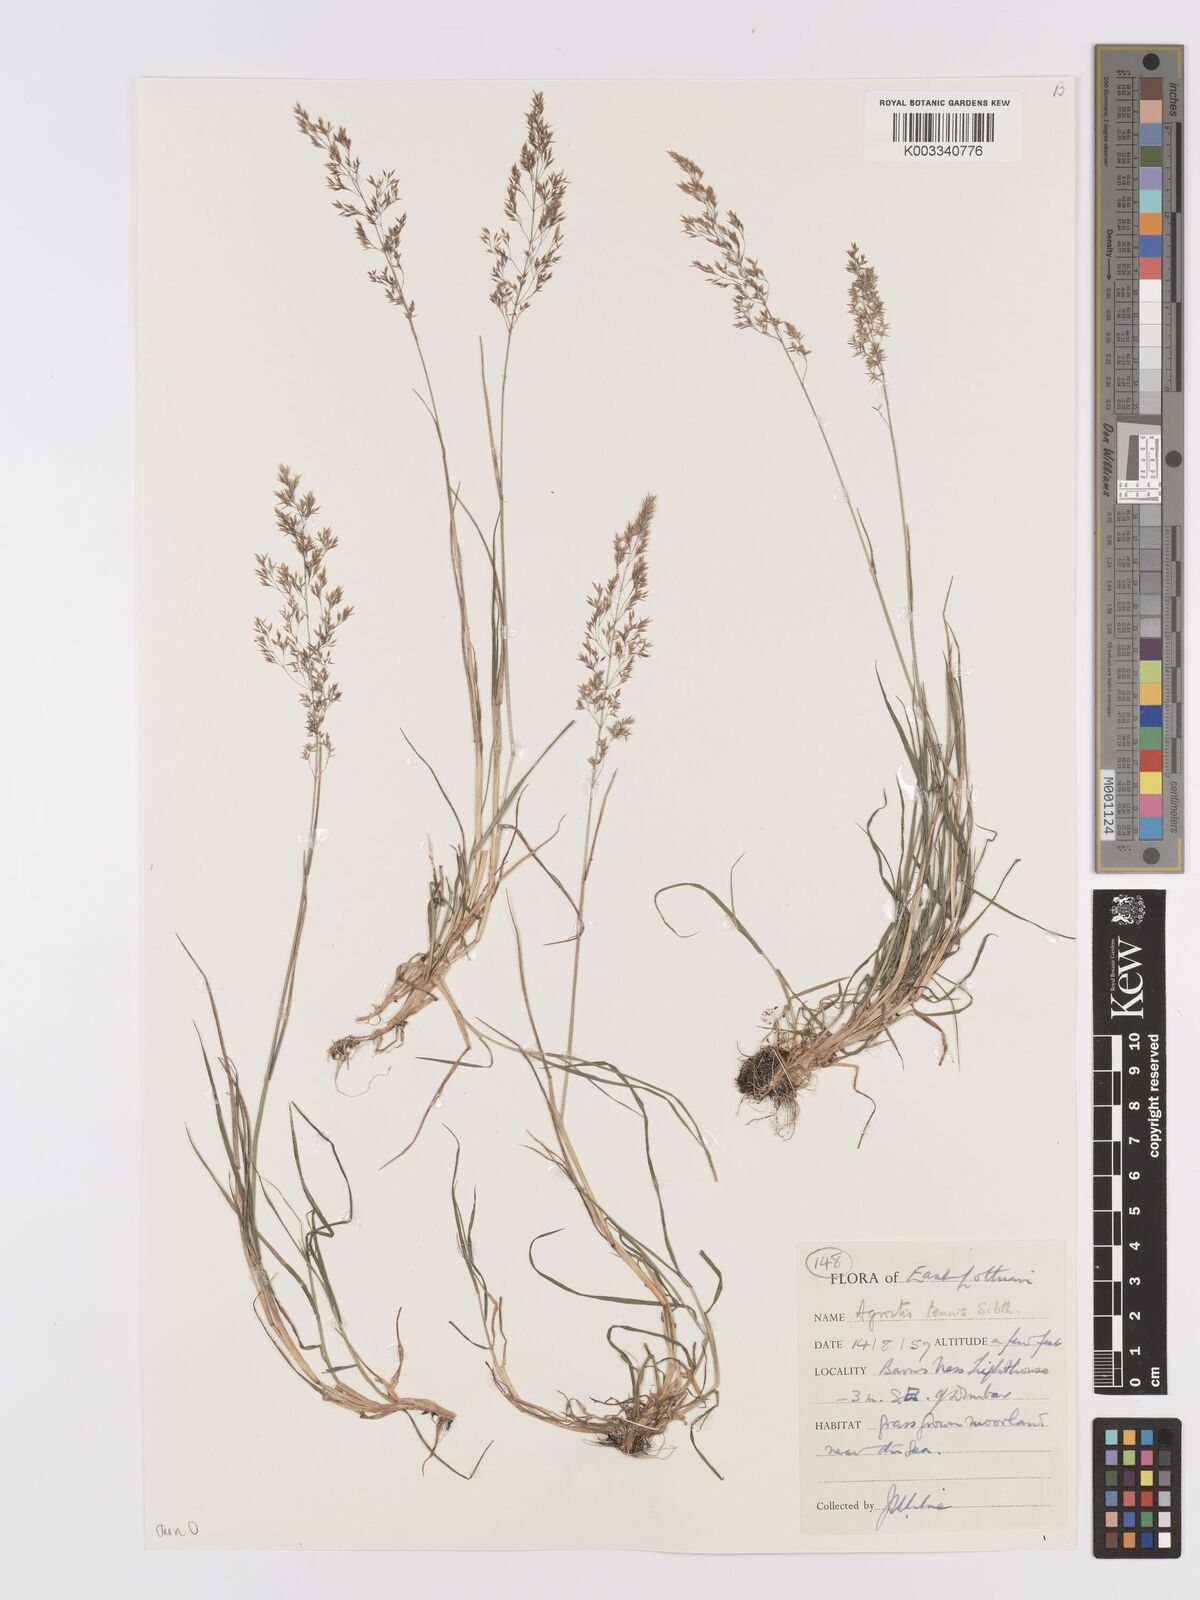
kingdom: Plantae
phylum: Tracheophyta
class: Liliopsida
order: Poales
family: Poaceae
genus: Agrostis
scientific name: Agrostis capillaris
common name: Colonial bentgrass
